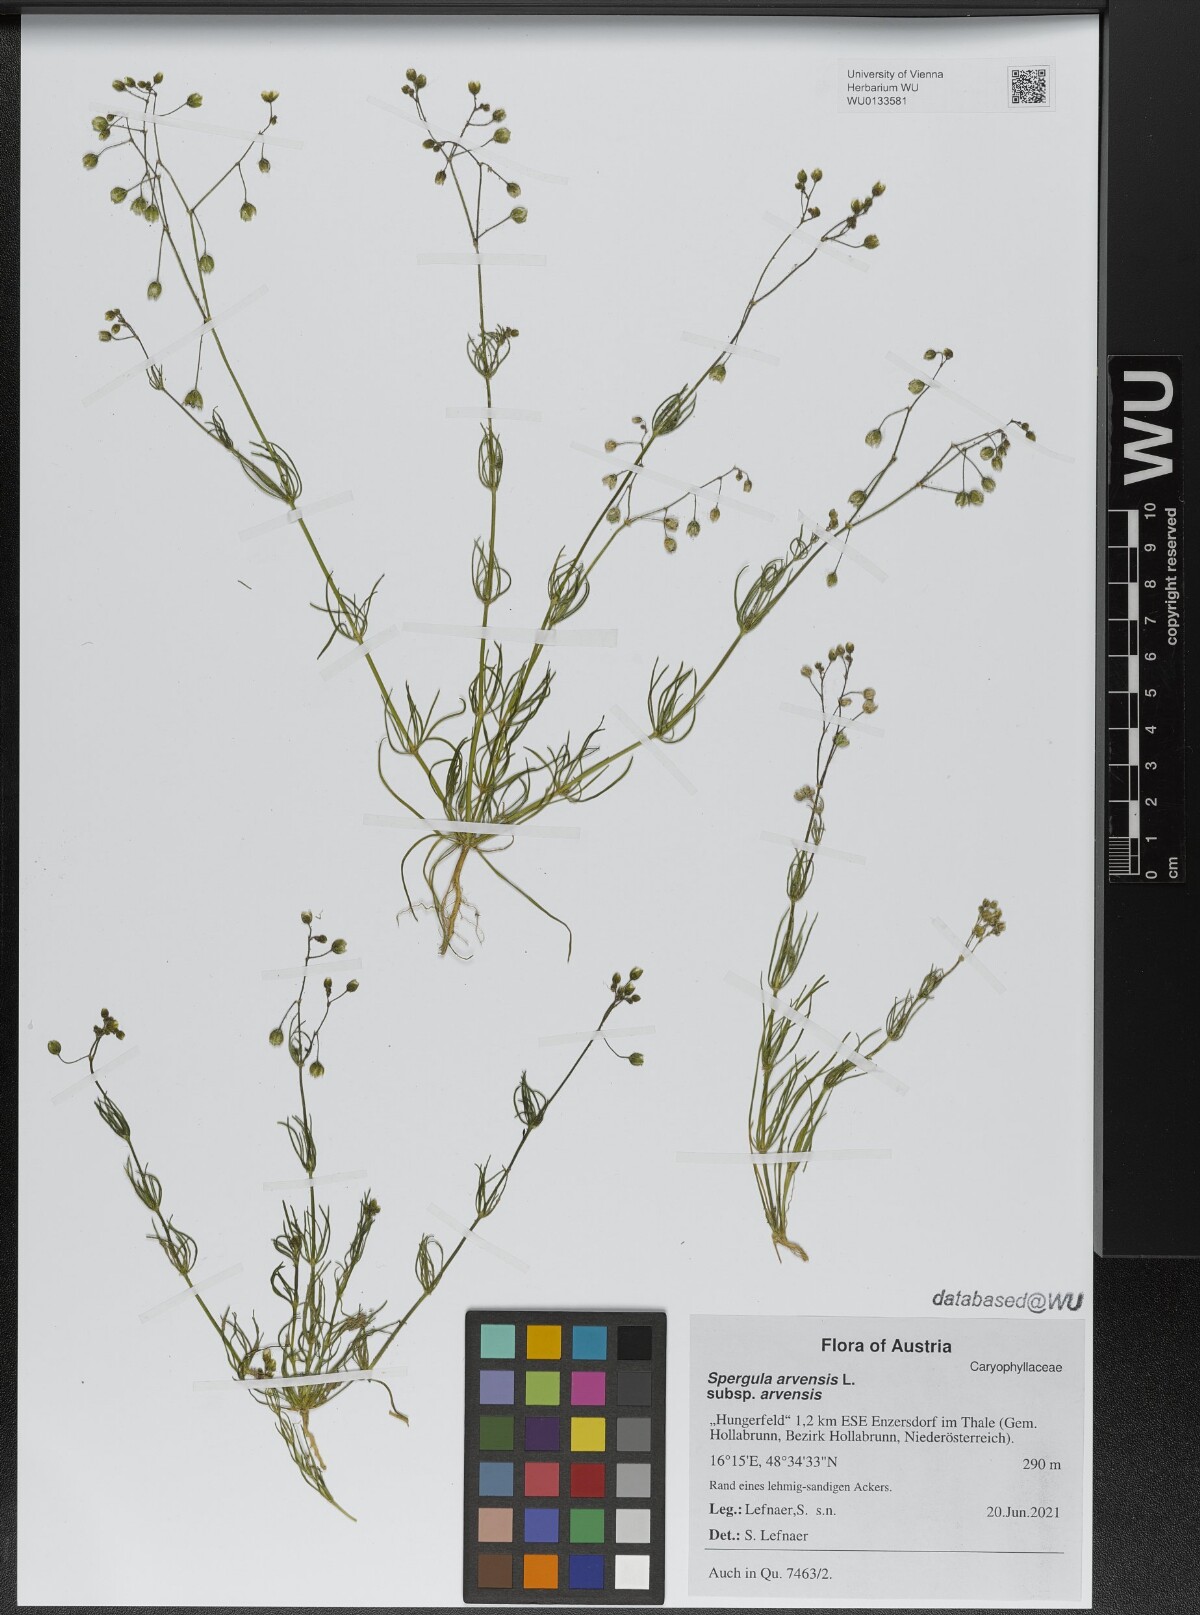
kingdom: Plantae
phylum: Tracheophyta
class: Magnoliopsida
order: Caryophyllales
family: Caryophyllaceae
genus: Spergula
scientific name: Spergula arvensis
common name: Corn spurrey
